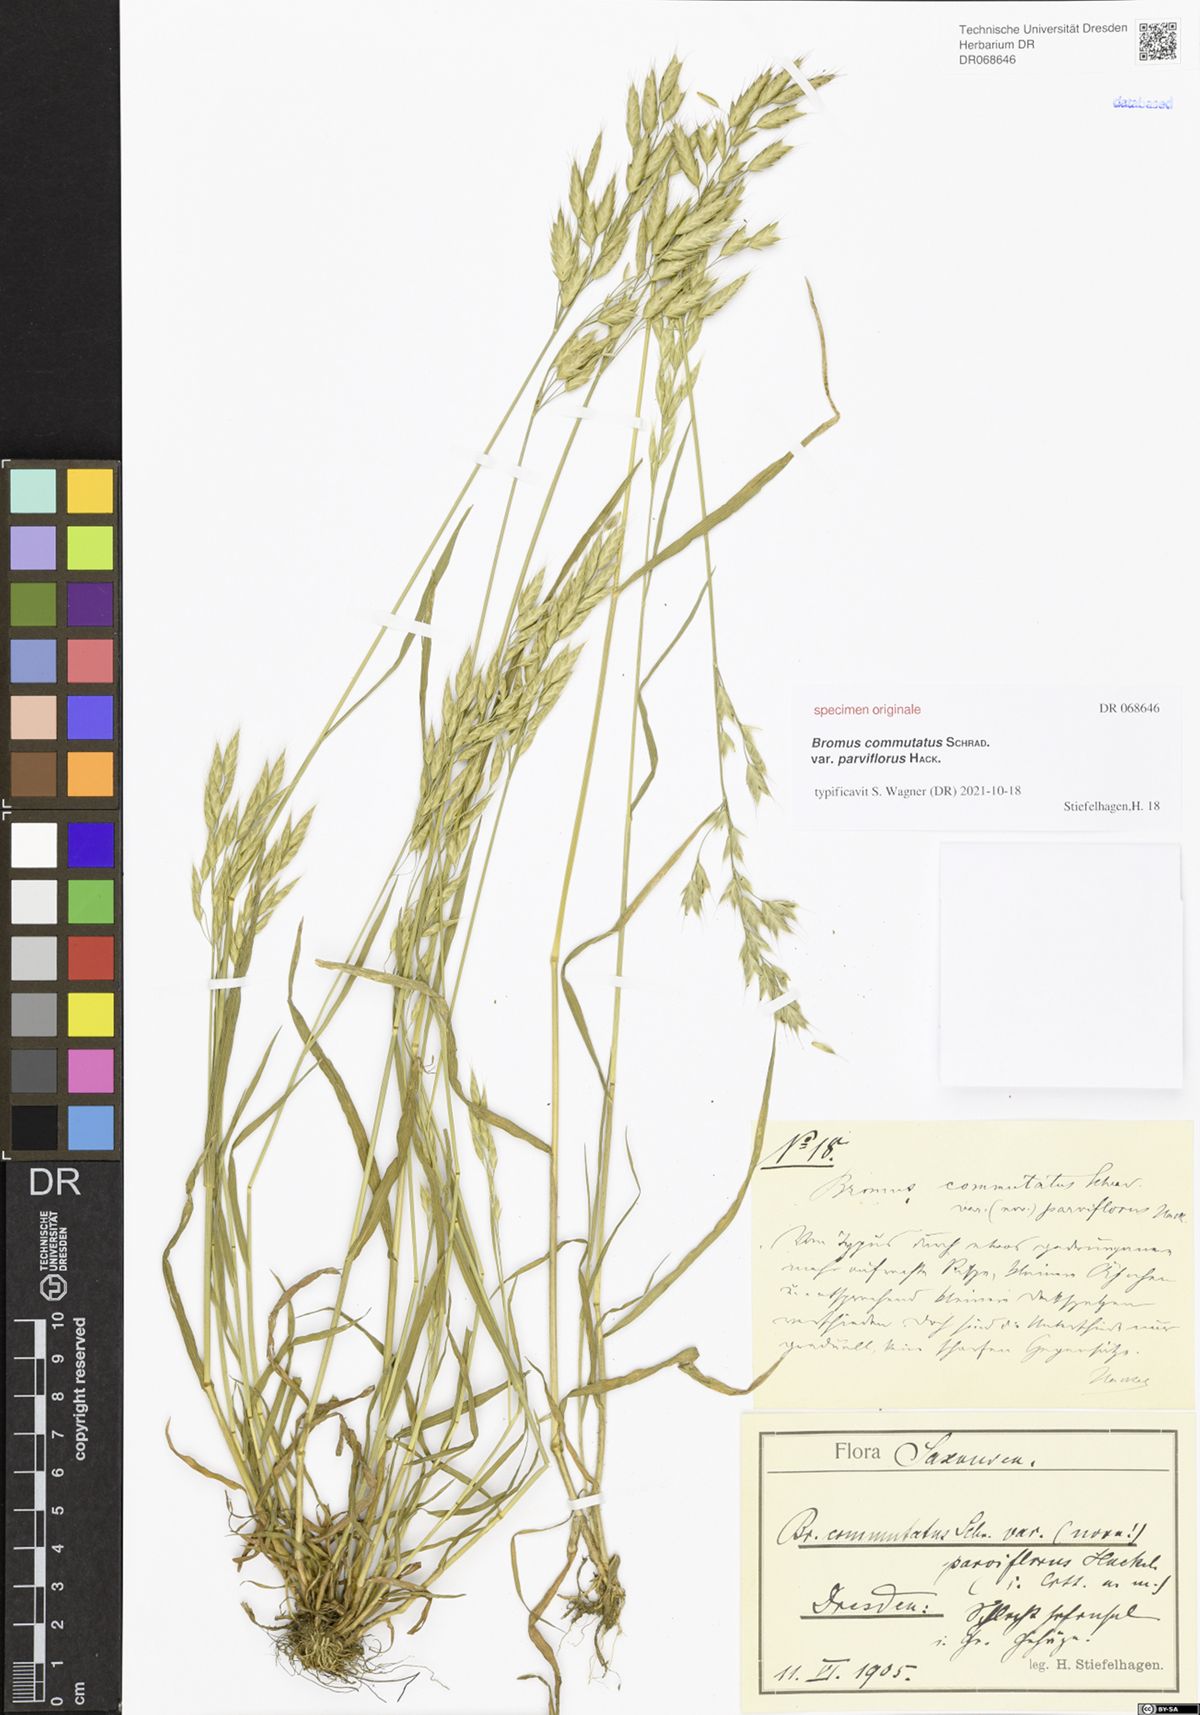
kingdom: Plantae
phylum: Tracheophyta
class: Liliopsida
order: Poales
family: Poaceae
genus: Bromus
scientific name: Bromus commutatus
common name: Meadow brome
